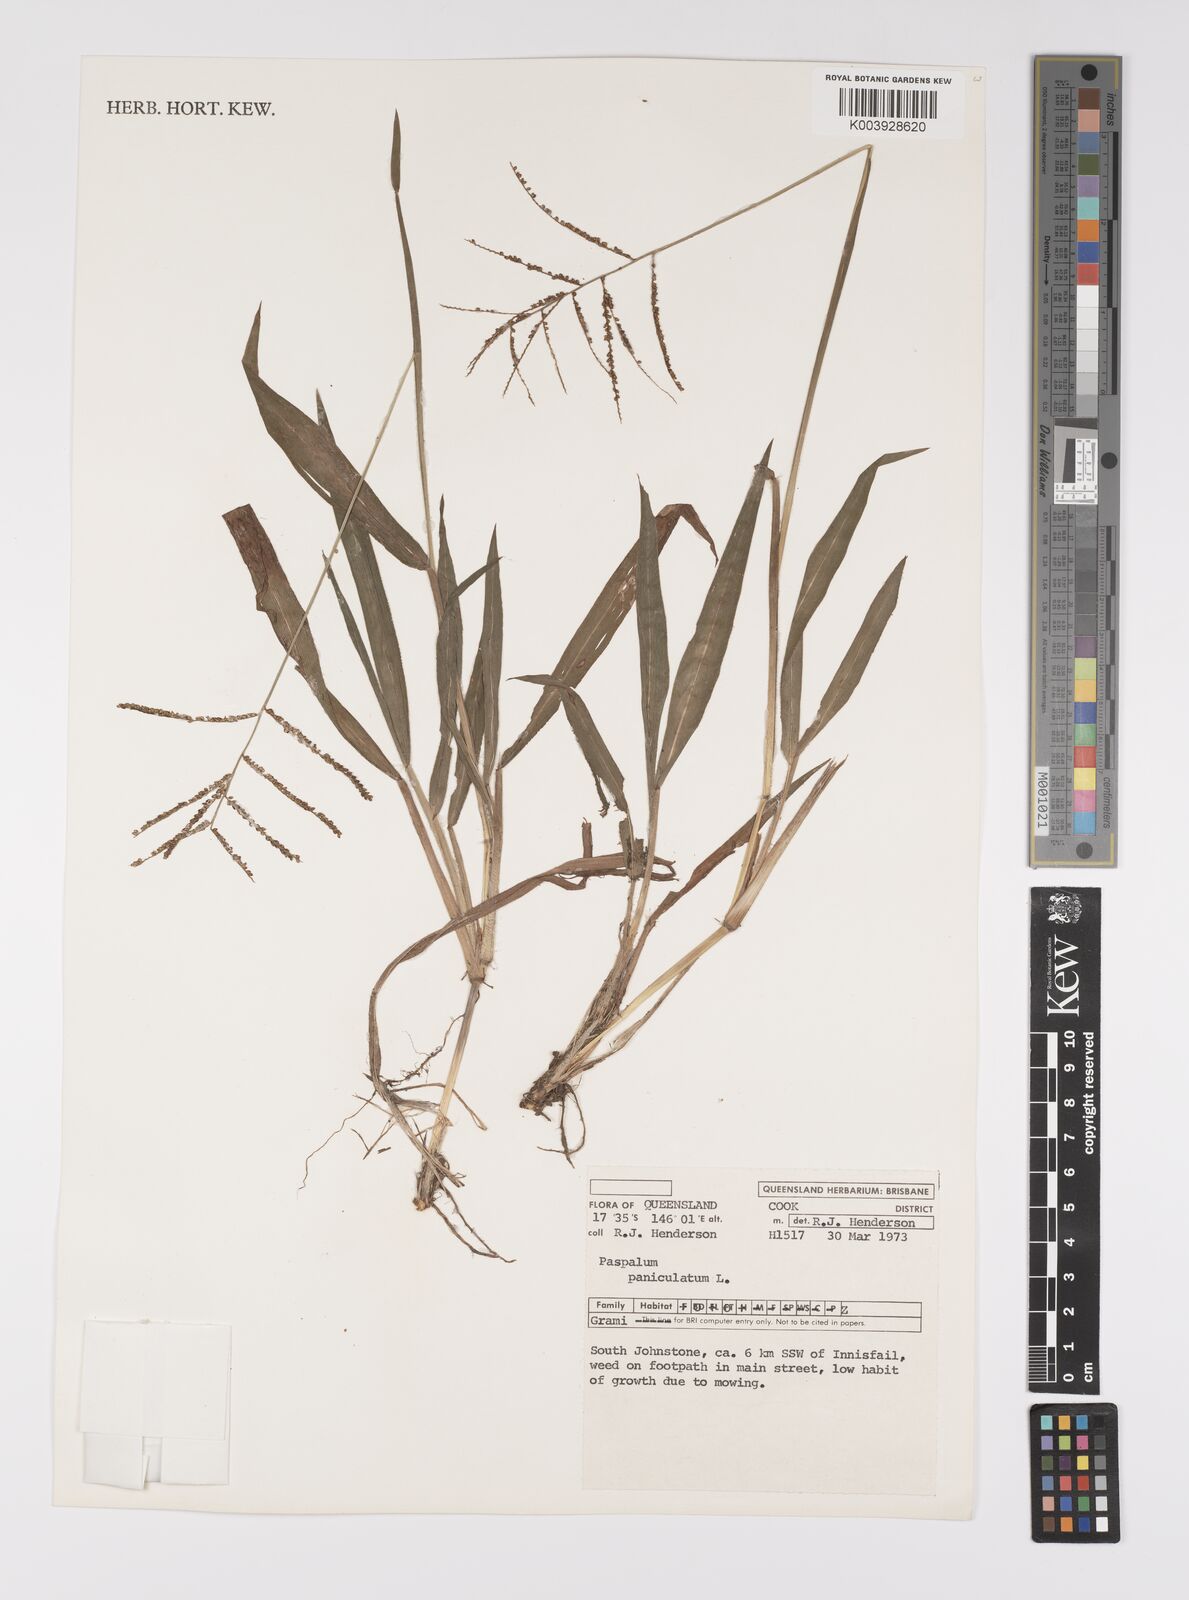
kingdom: Plantae
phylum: Tracheophyta
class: Liliopsida
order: Poales
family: Poaceae
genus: Paspalum
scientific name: Paspalum paniculatum
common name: Arrocillo
